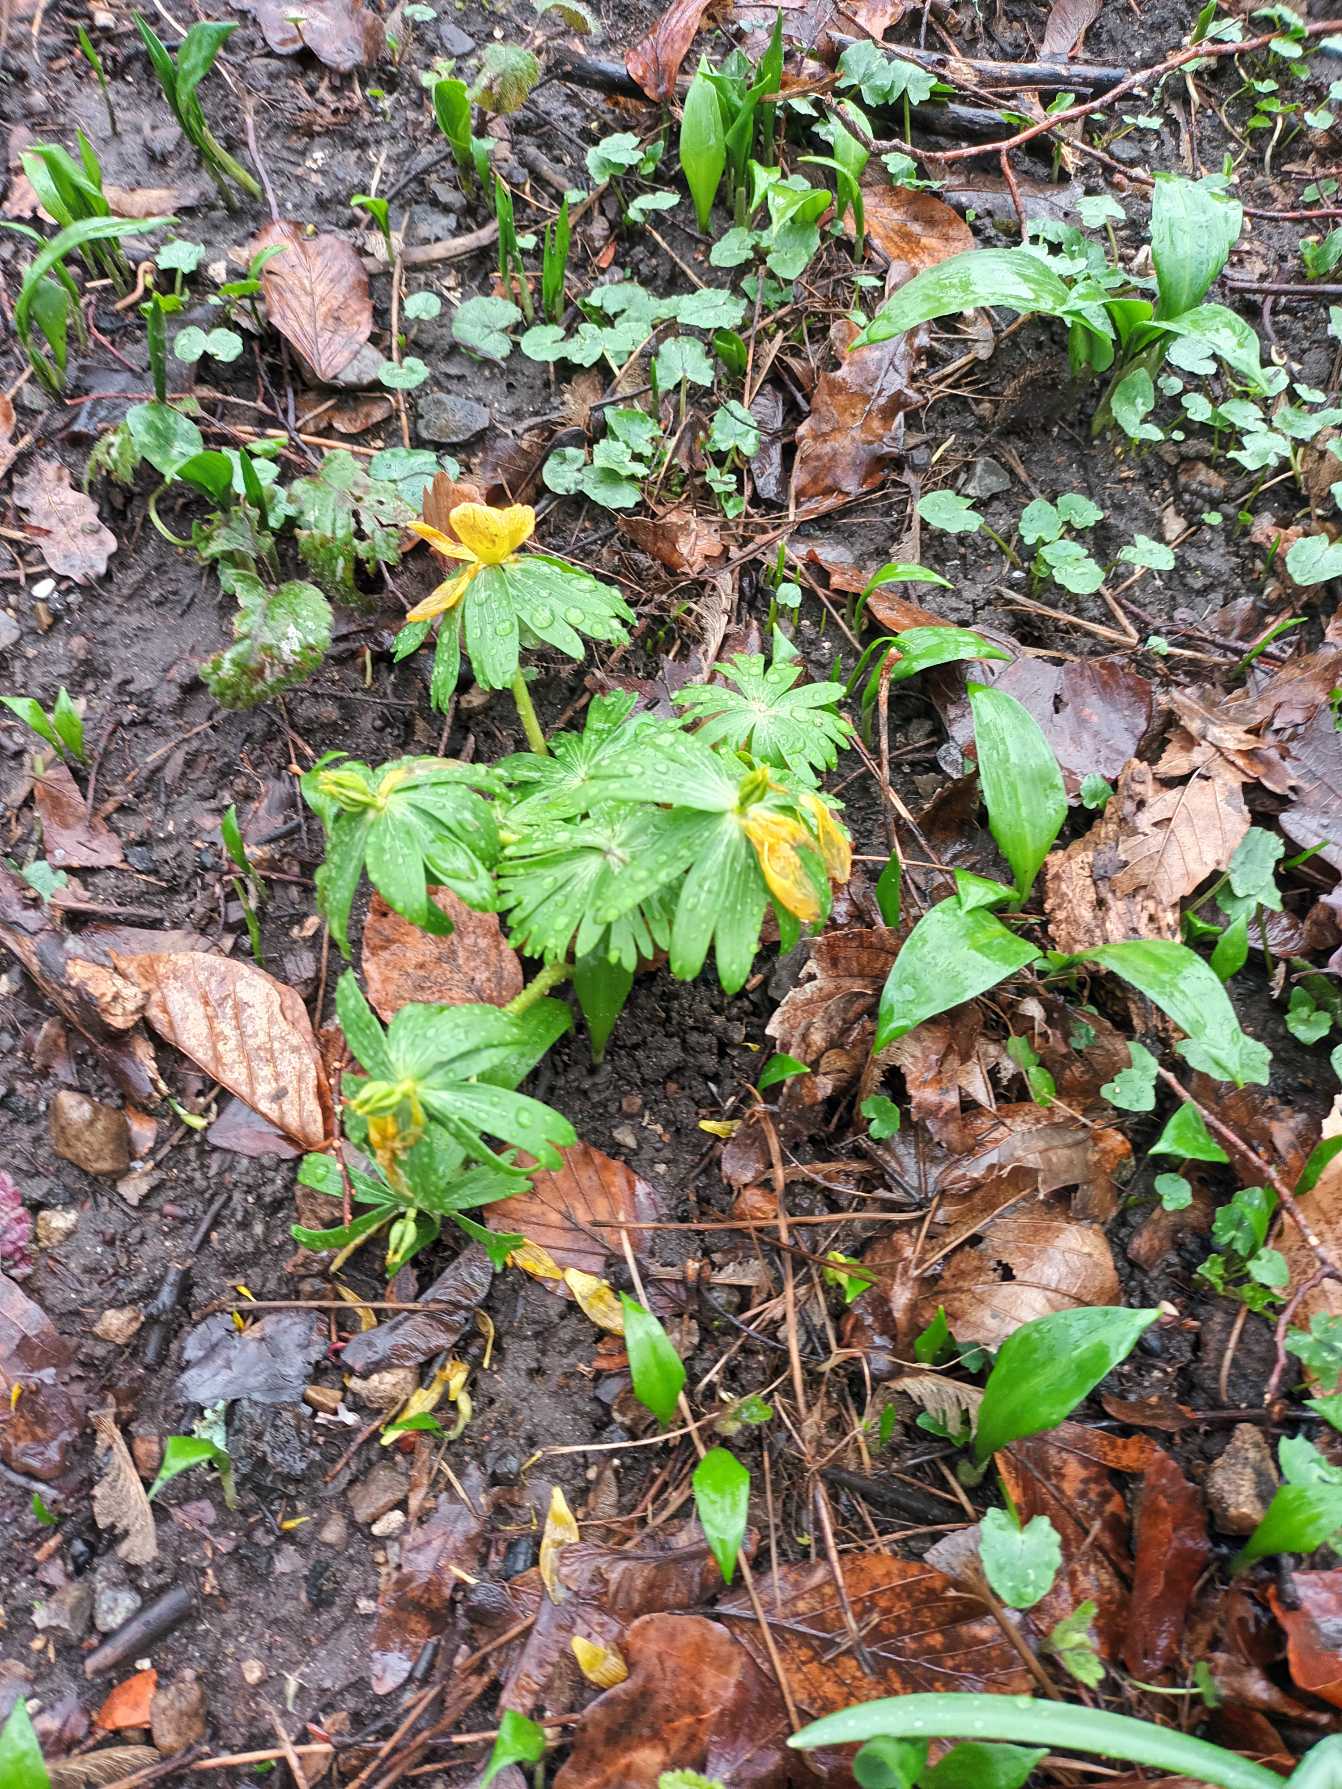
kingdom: Plantae
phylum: Tracheophyta
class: Magnoliopsida
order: Ranunculales
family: Ranunculaceae
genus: Eranthis
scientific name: Eranthis hyemalis
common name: Erantis
